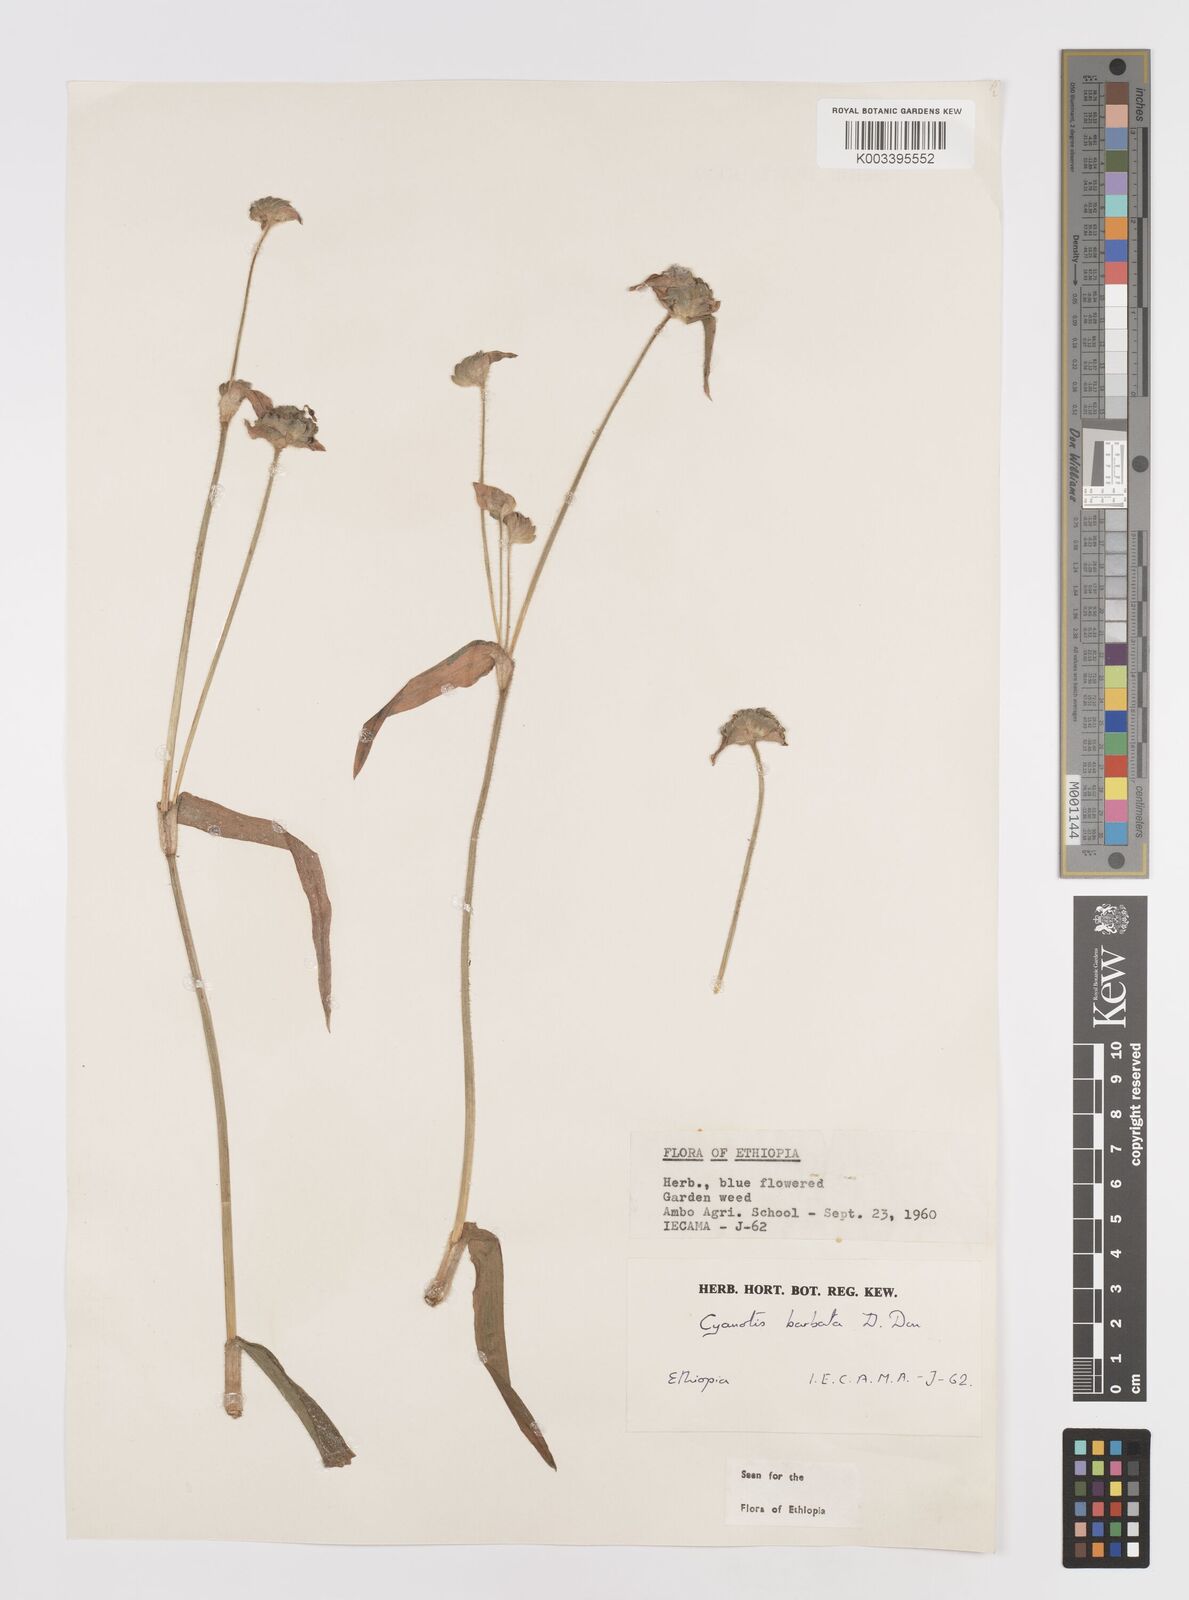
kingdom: Plantae
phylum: Tracheophyta
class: Liliopsida
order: Commelinales
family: Commelinaceae
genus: Cyanotis
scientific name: Cyanotis vaga
